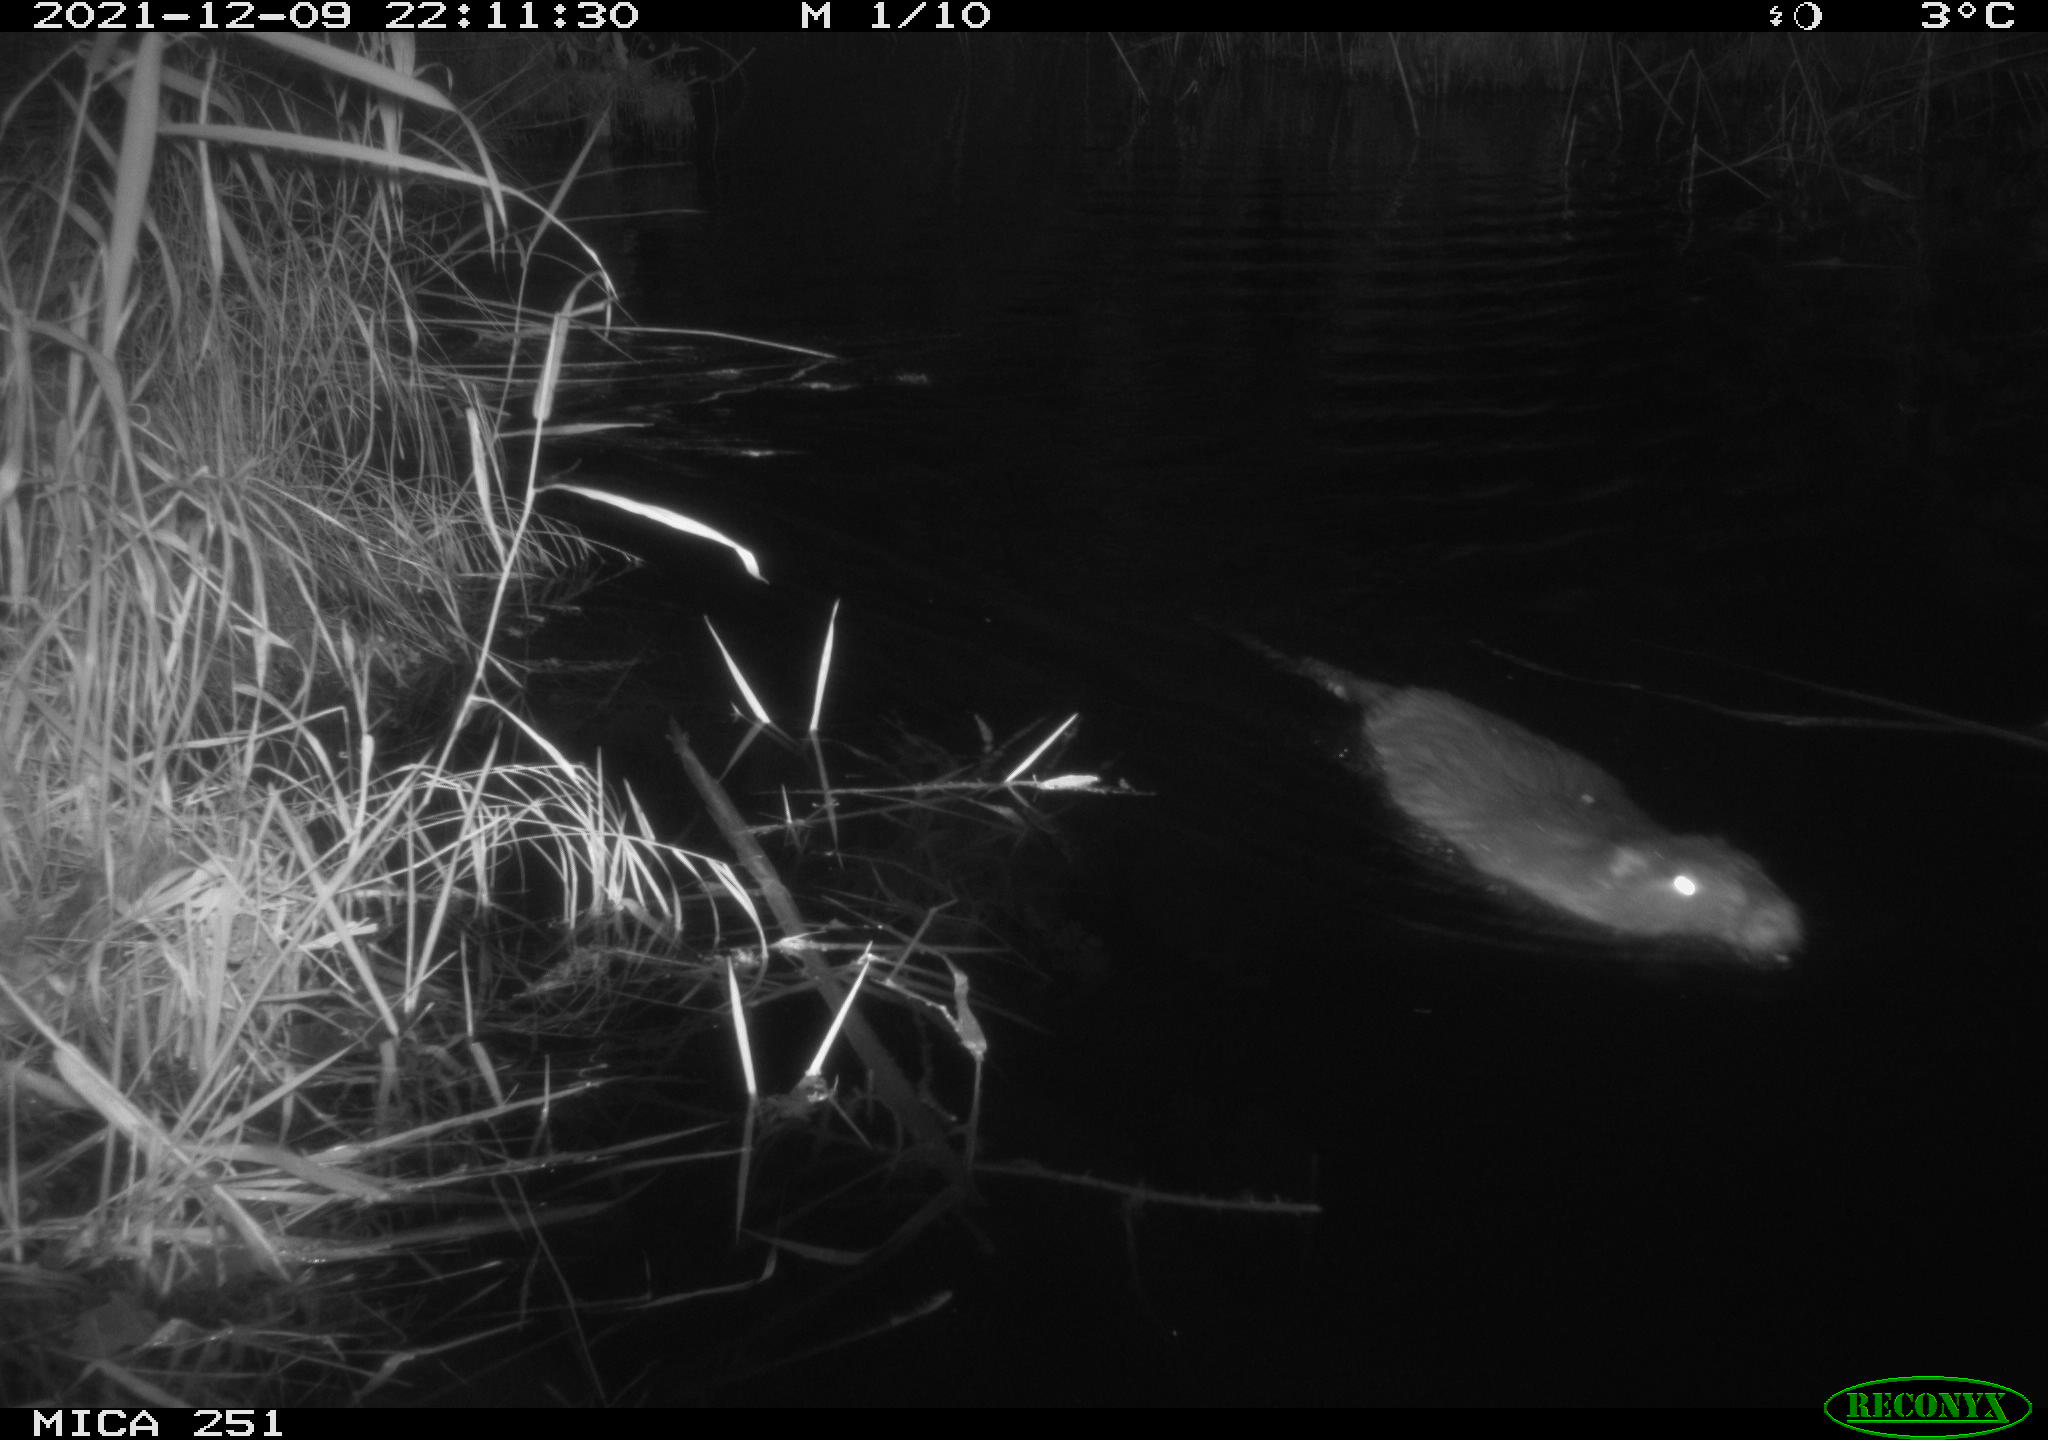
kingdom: Animalia
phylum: Chordata
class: Mammalia
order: Rodentia
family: Myocastoridae
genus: Myocastor
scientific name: Myocastor coypus
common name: Coypu
